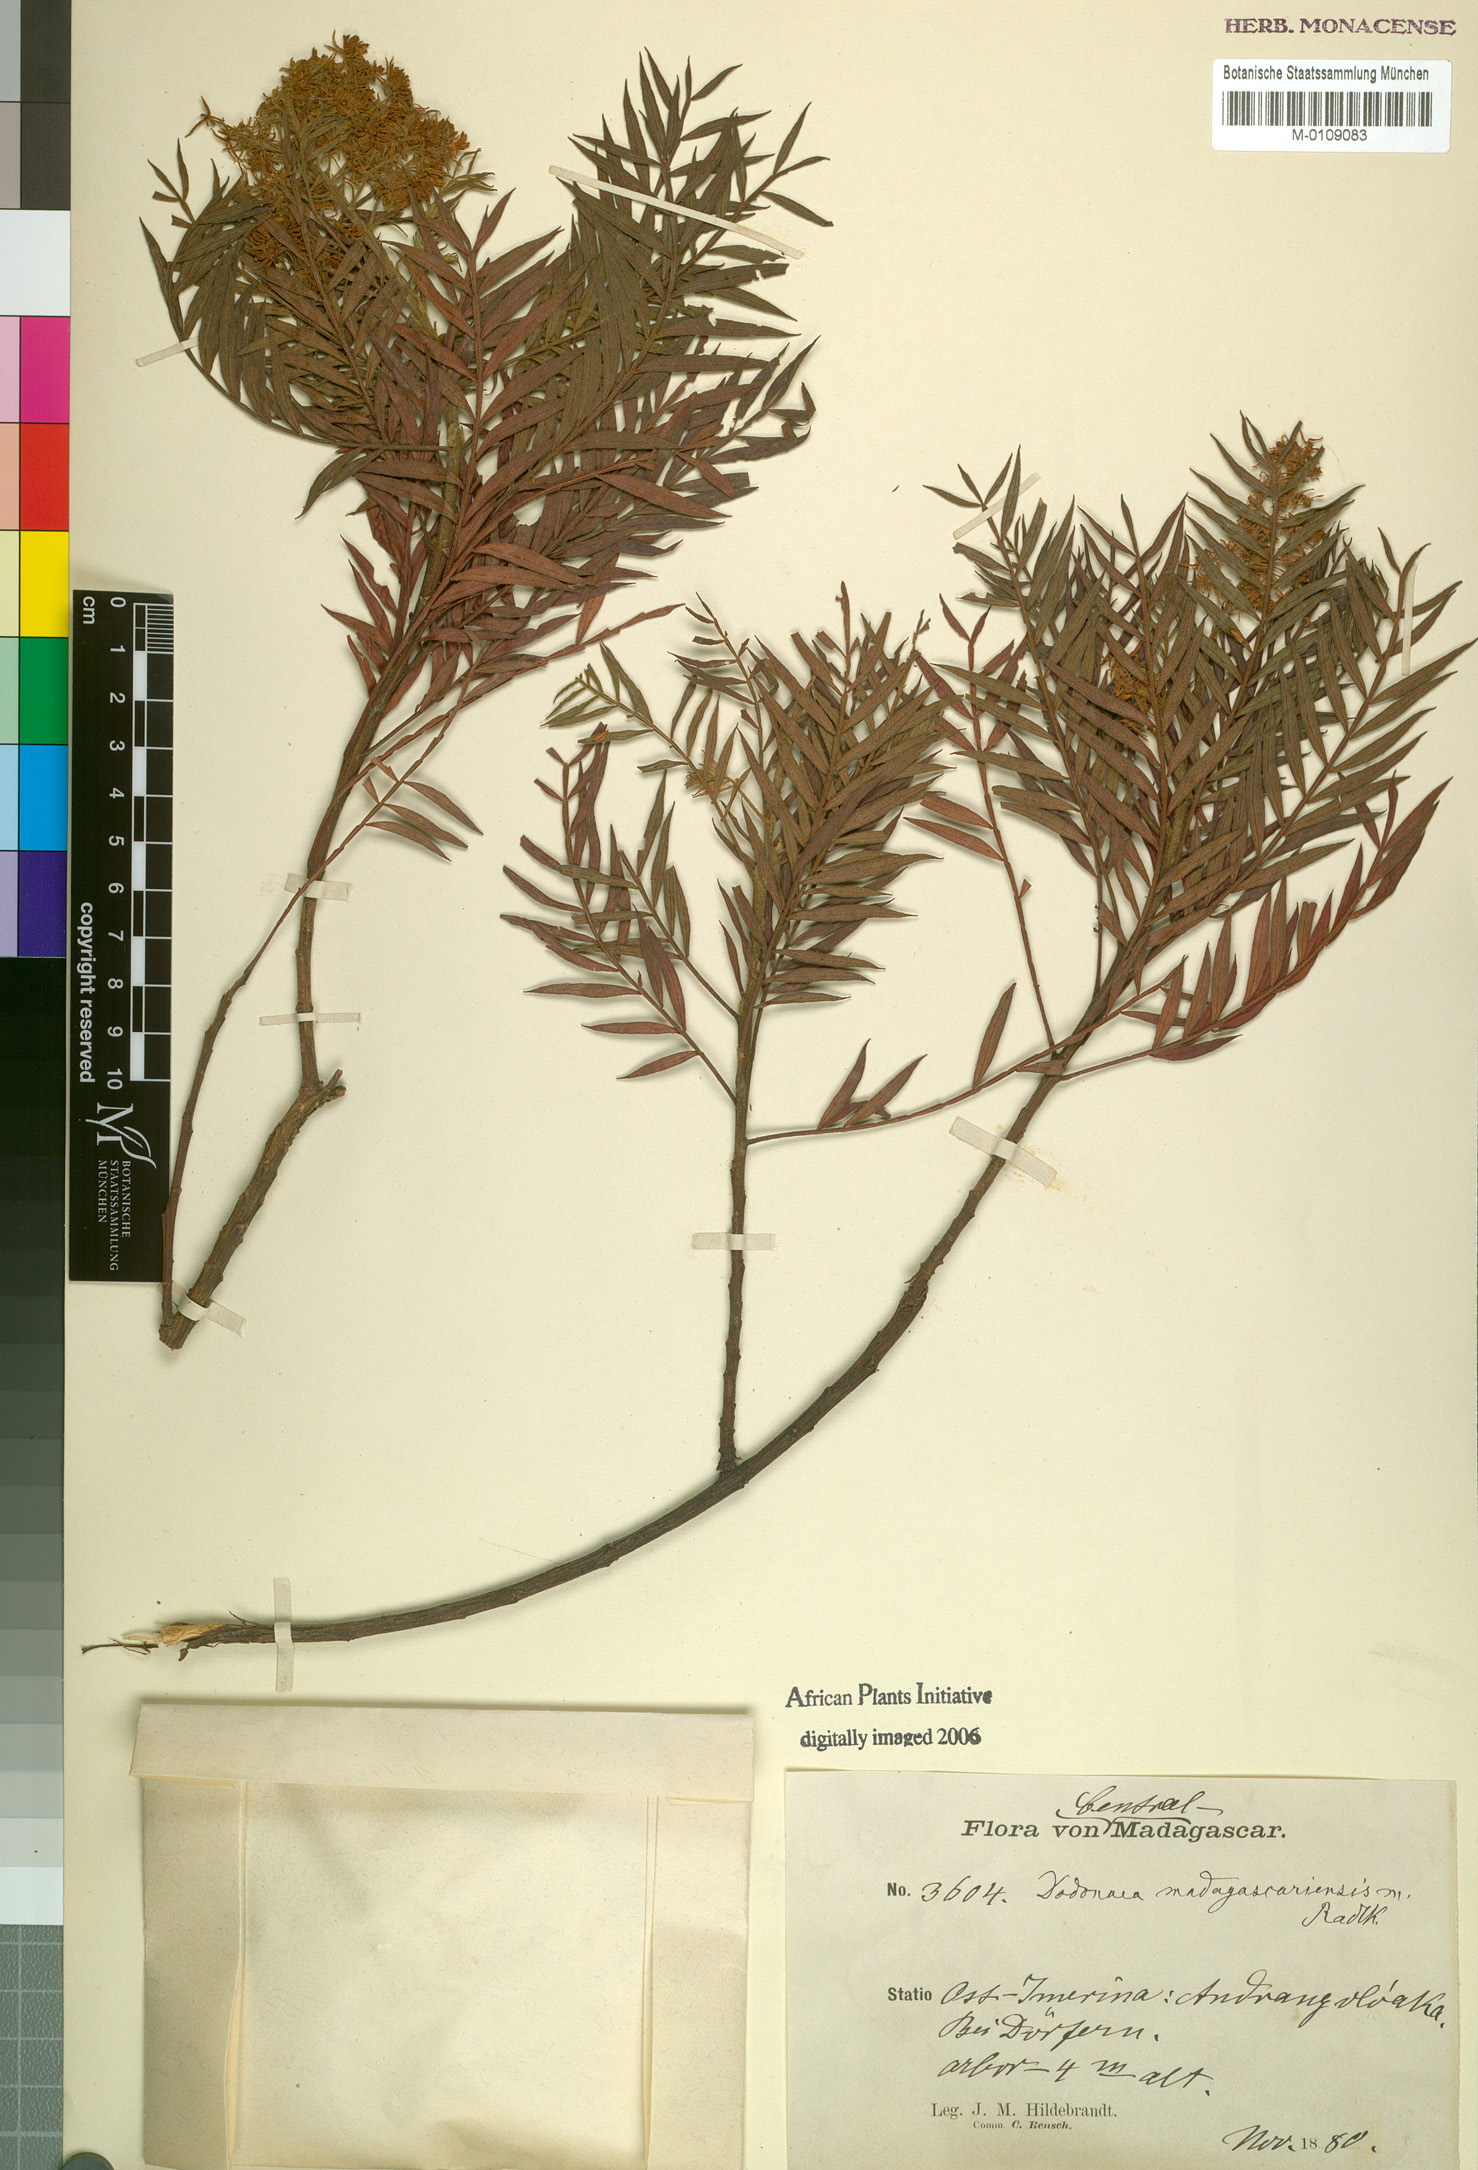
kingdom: Plantae
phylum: Tracheophyta
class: Magnoliopsida
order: Sapindales
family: Sapindaceae
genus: Dodonaea
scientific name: Dodonaea madagascariensis
